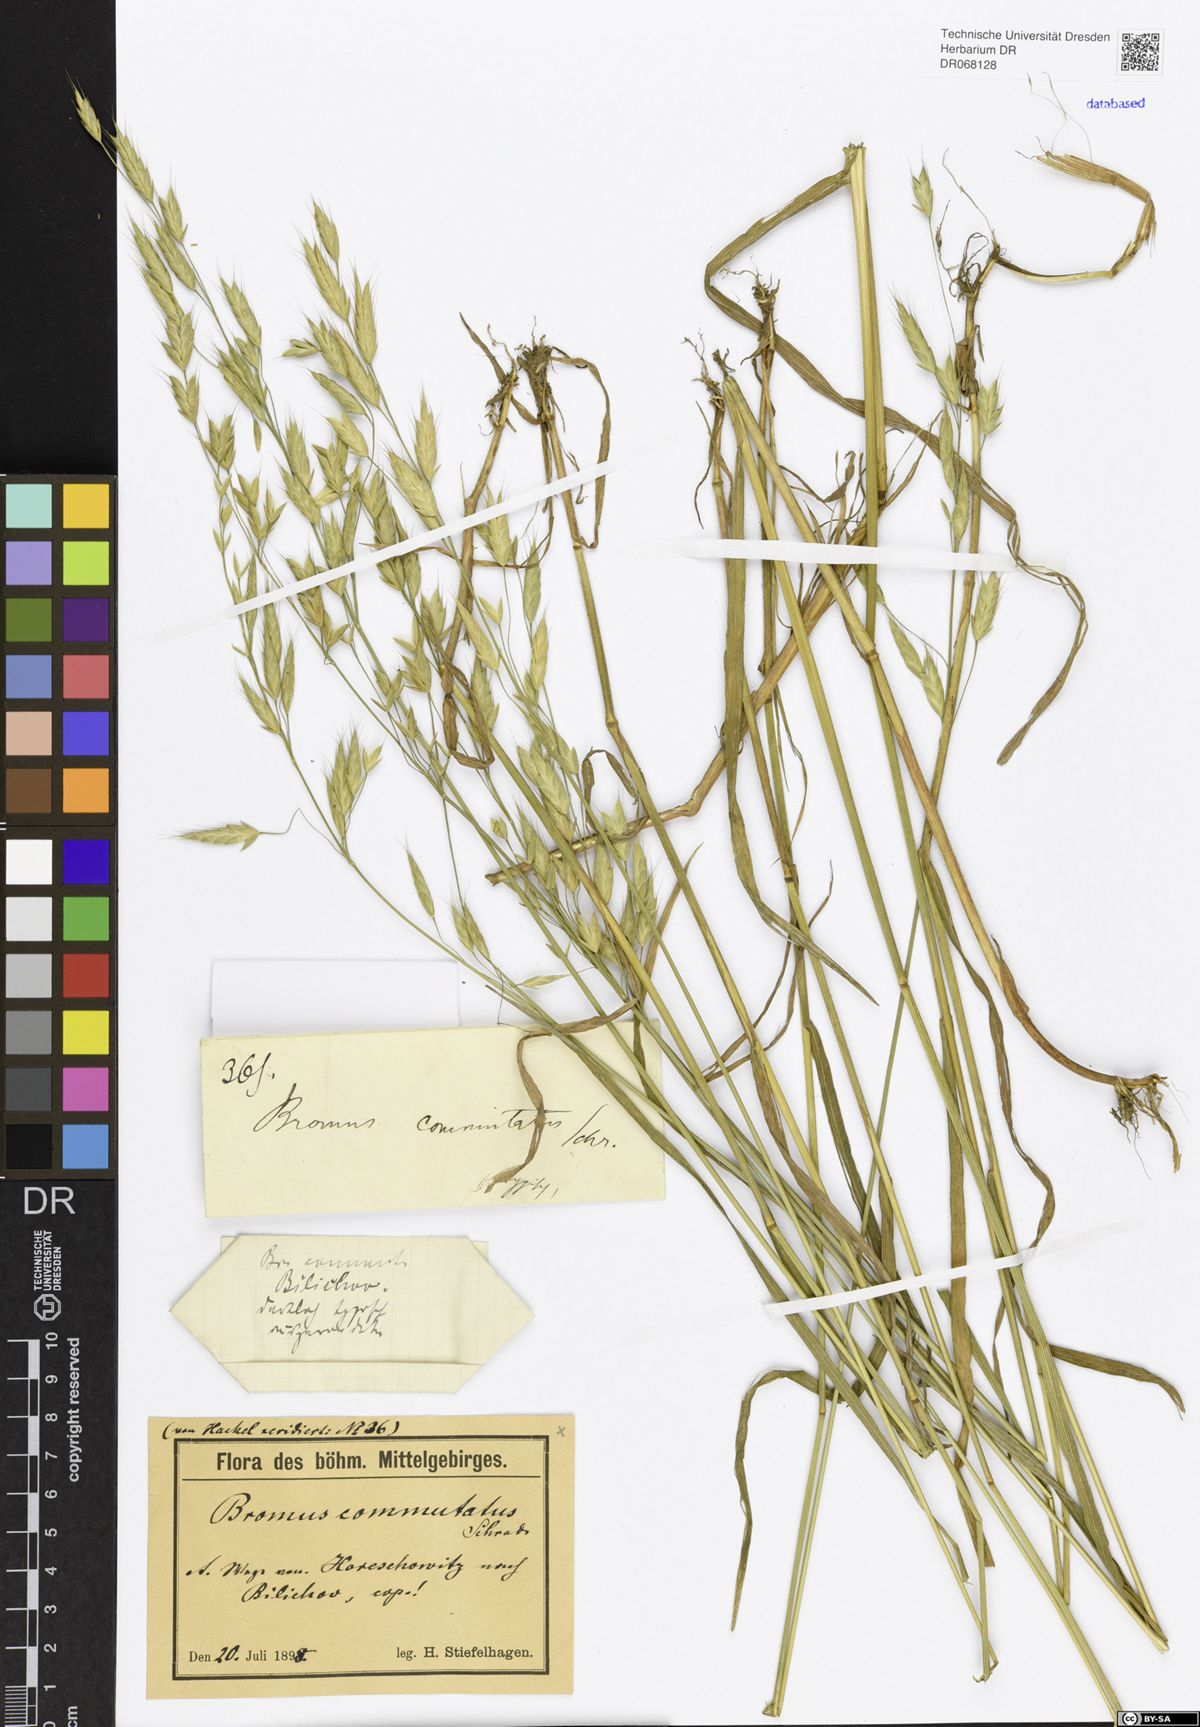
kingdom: Plantae
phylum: Tracheophyta
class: Liliopsida
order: Poales
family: Poaceae
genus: Bromus
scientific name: Bromus commutatus
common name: Meadow brome
